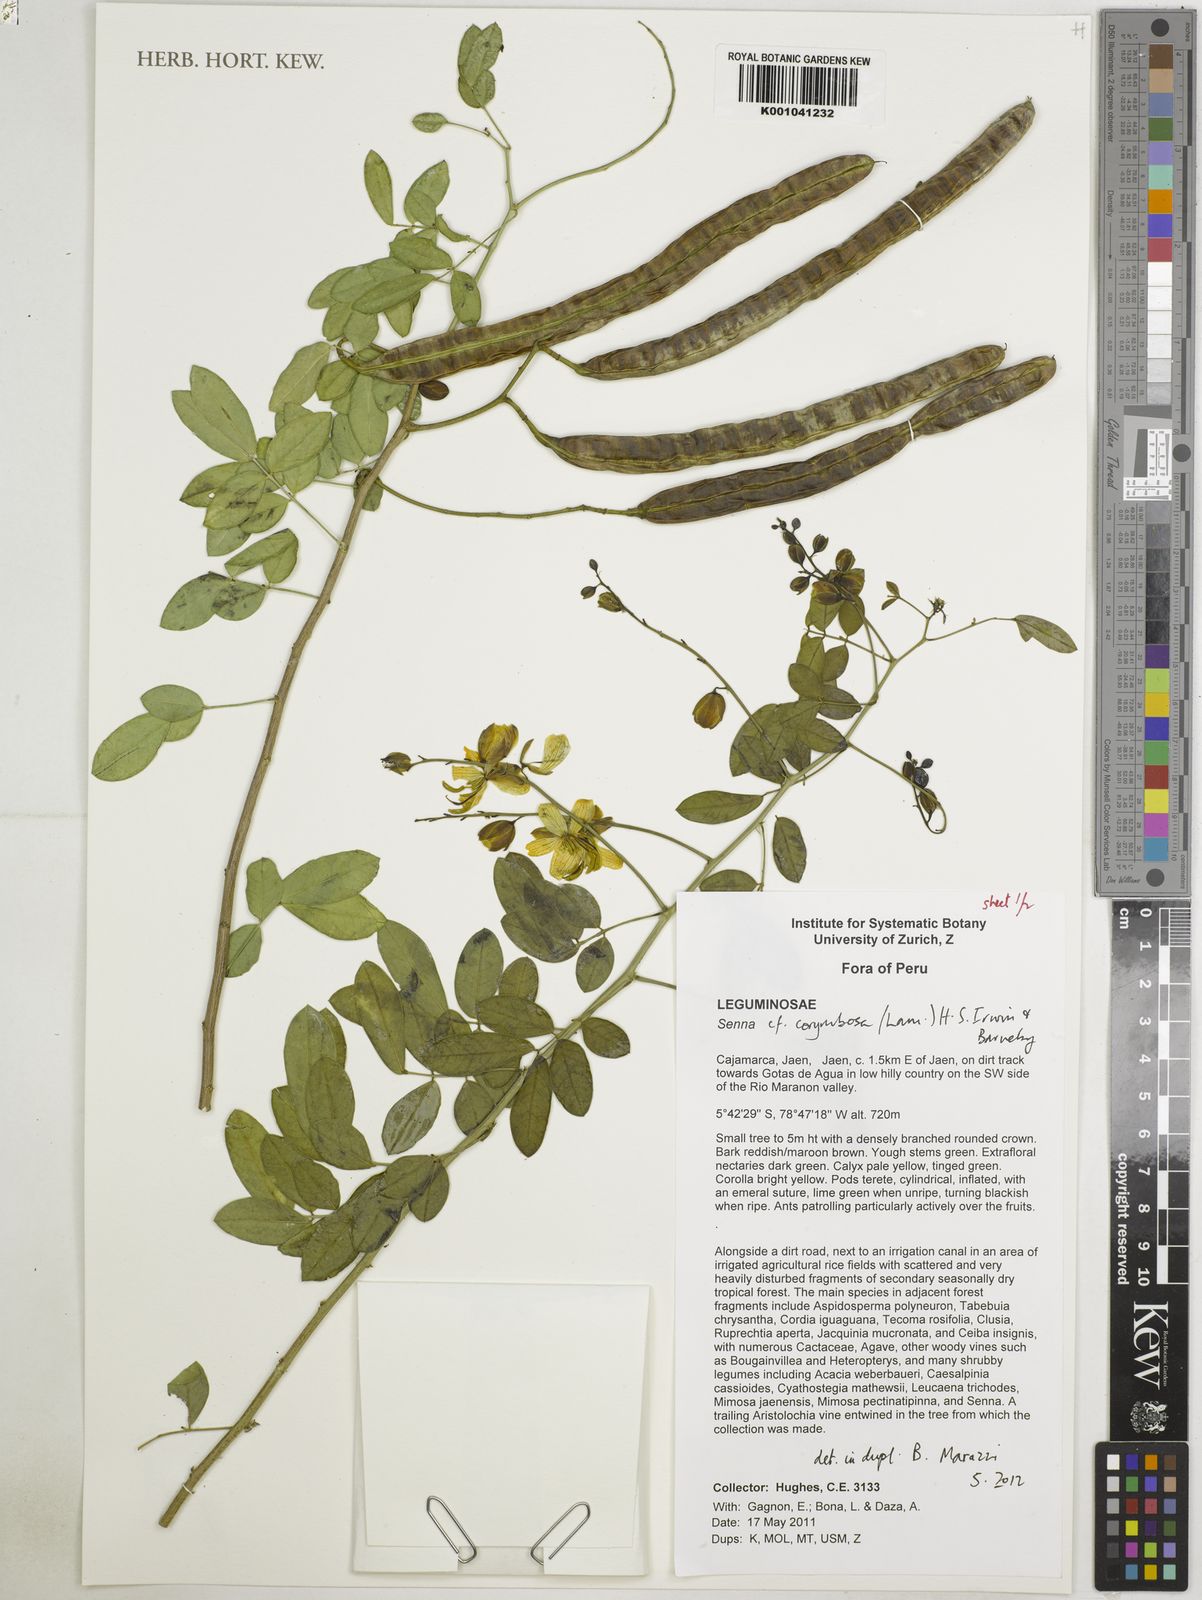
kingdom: Plantae
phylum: Tracheophyta
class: Magnoliopsida
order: Fabales
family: Fabaceae
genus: Senna
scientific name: Senna corymbosa
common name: Argentine senna
